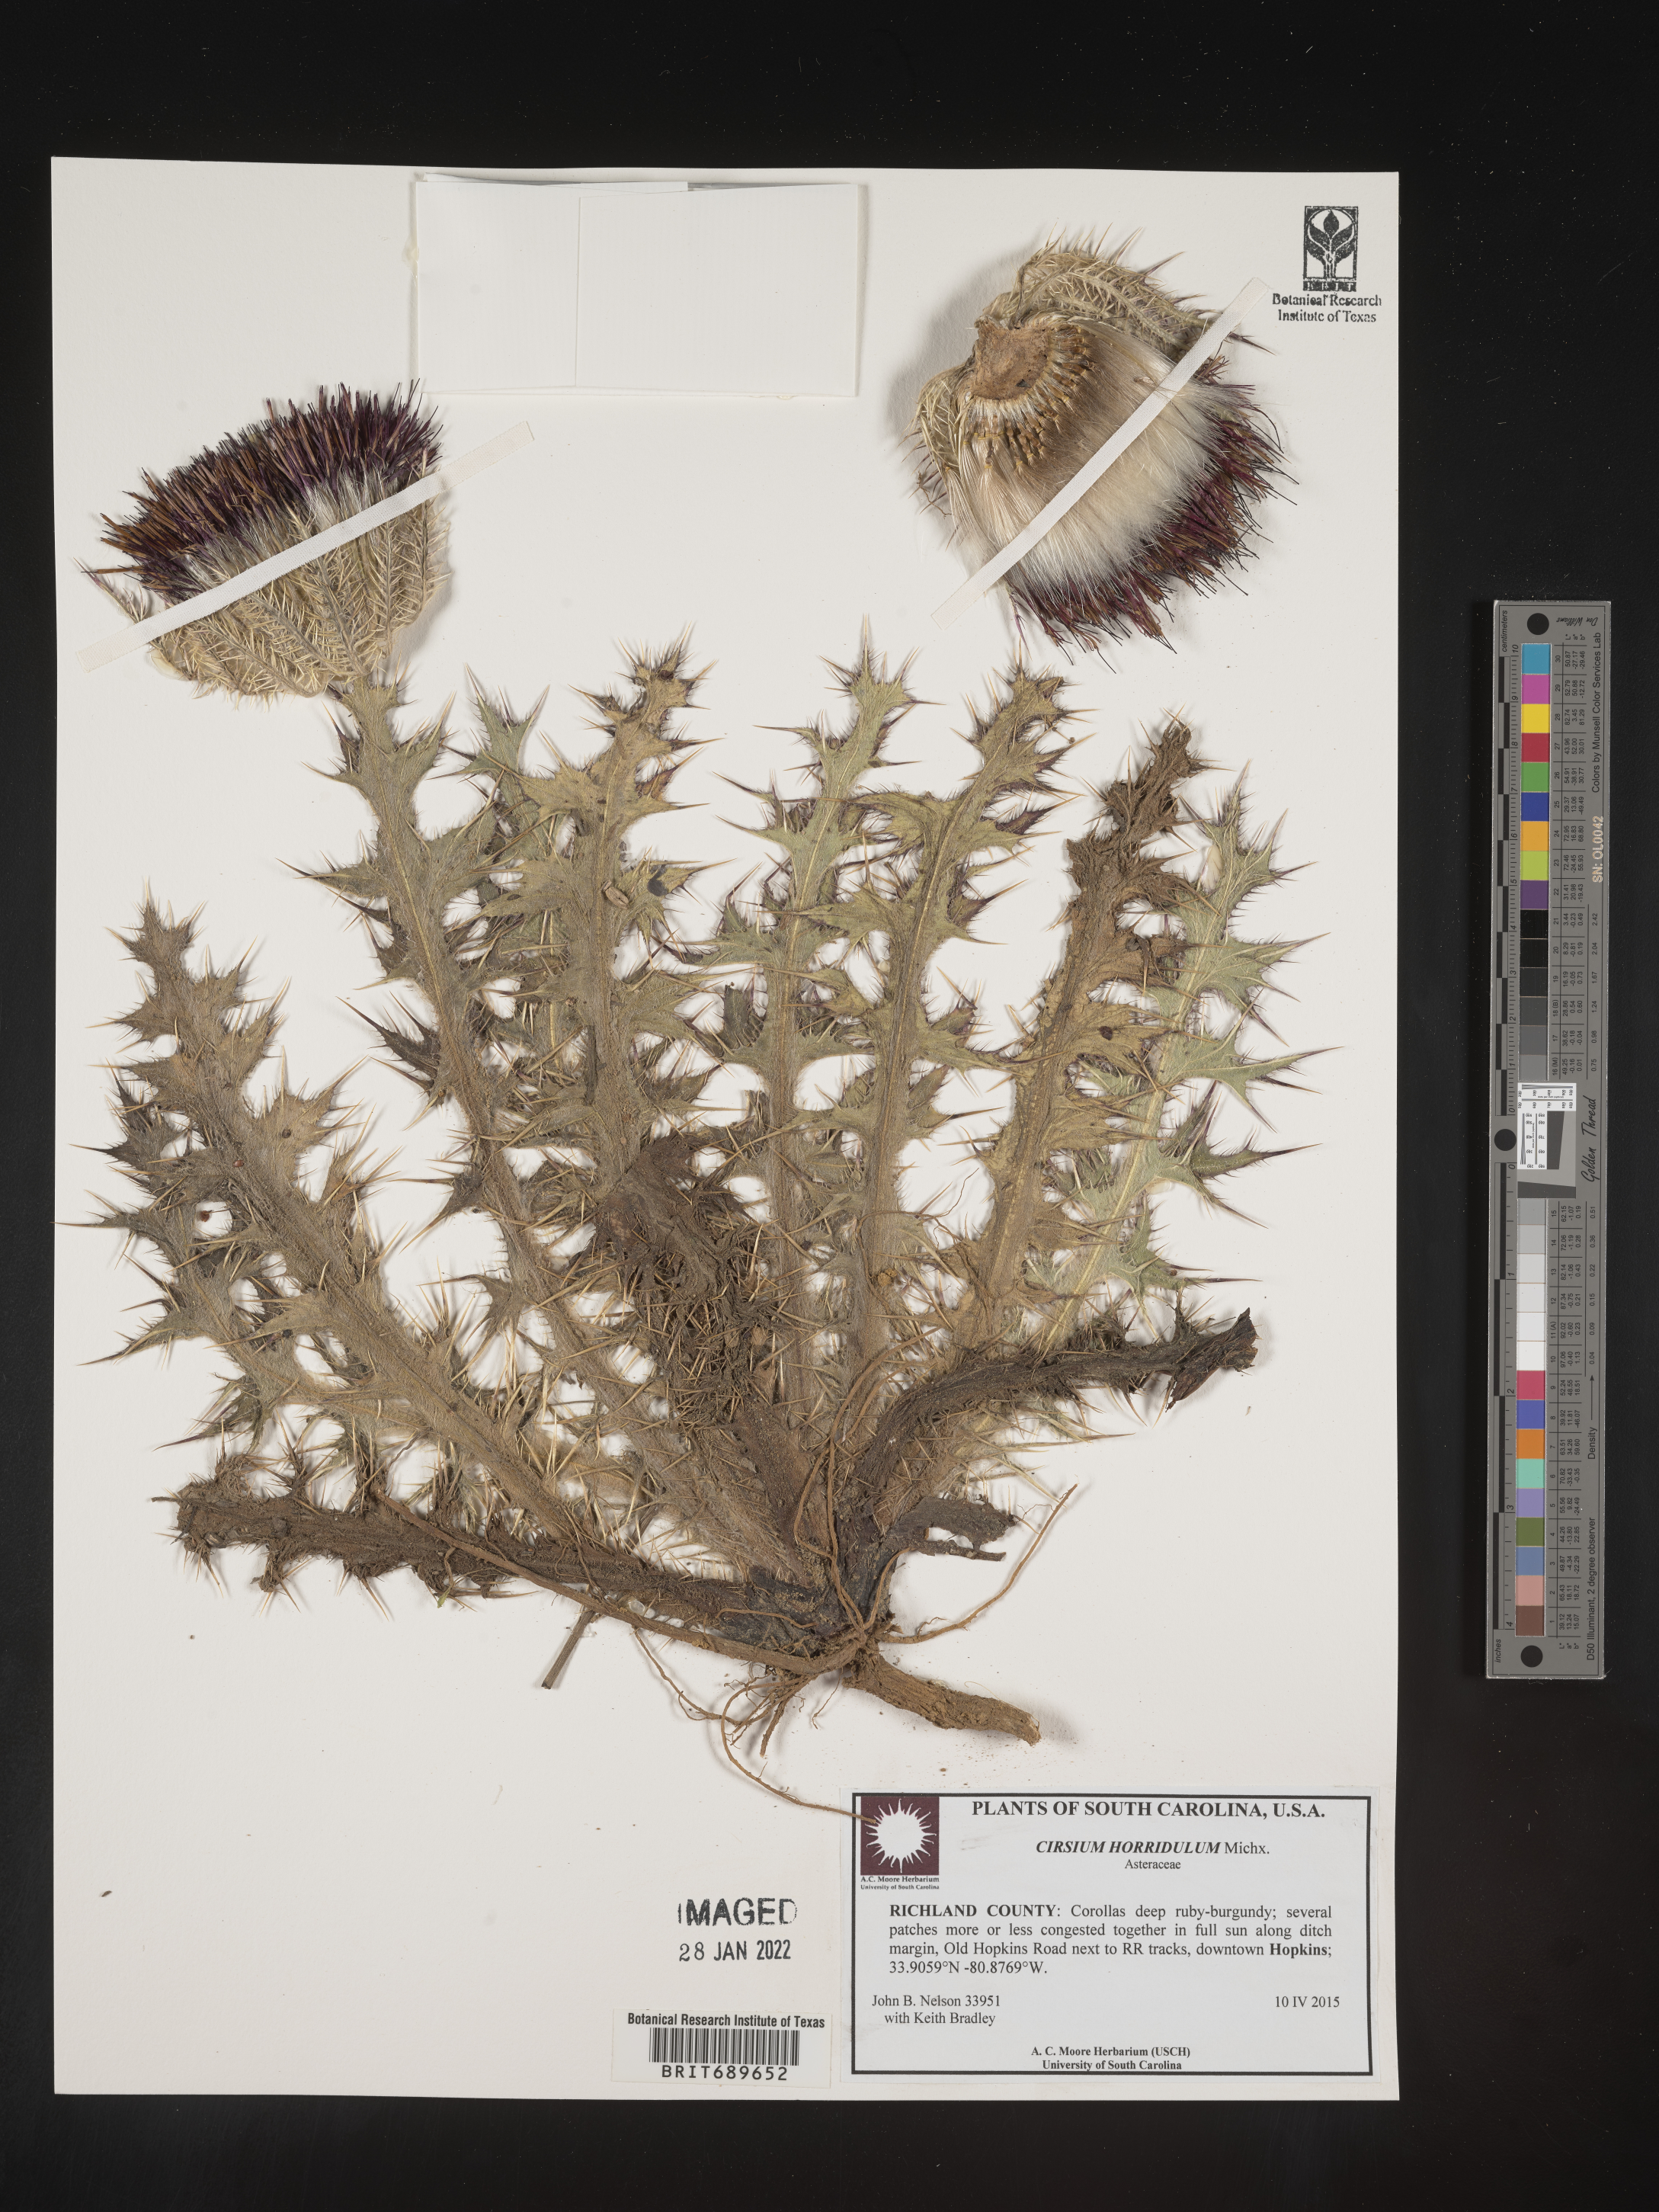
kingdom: Plantae
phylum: Tracheophyta
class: Magnoliopsida
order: Asterales
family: Asteraceae
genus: Cirsium
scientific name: Cirsium horridulum
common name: Bristly thistle
